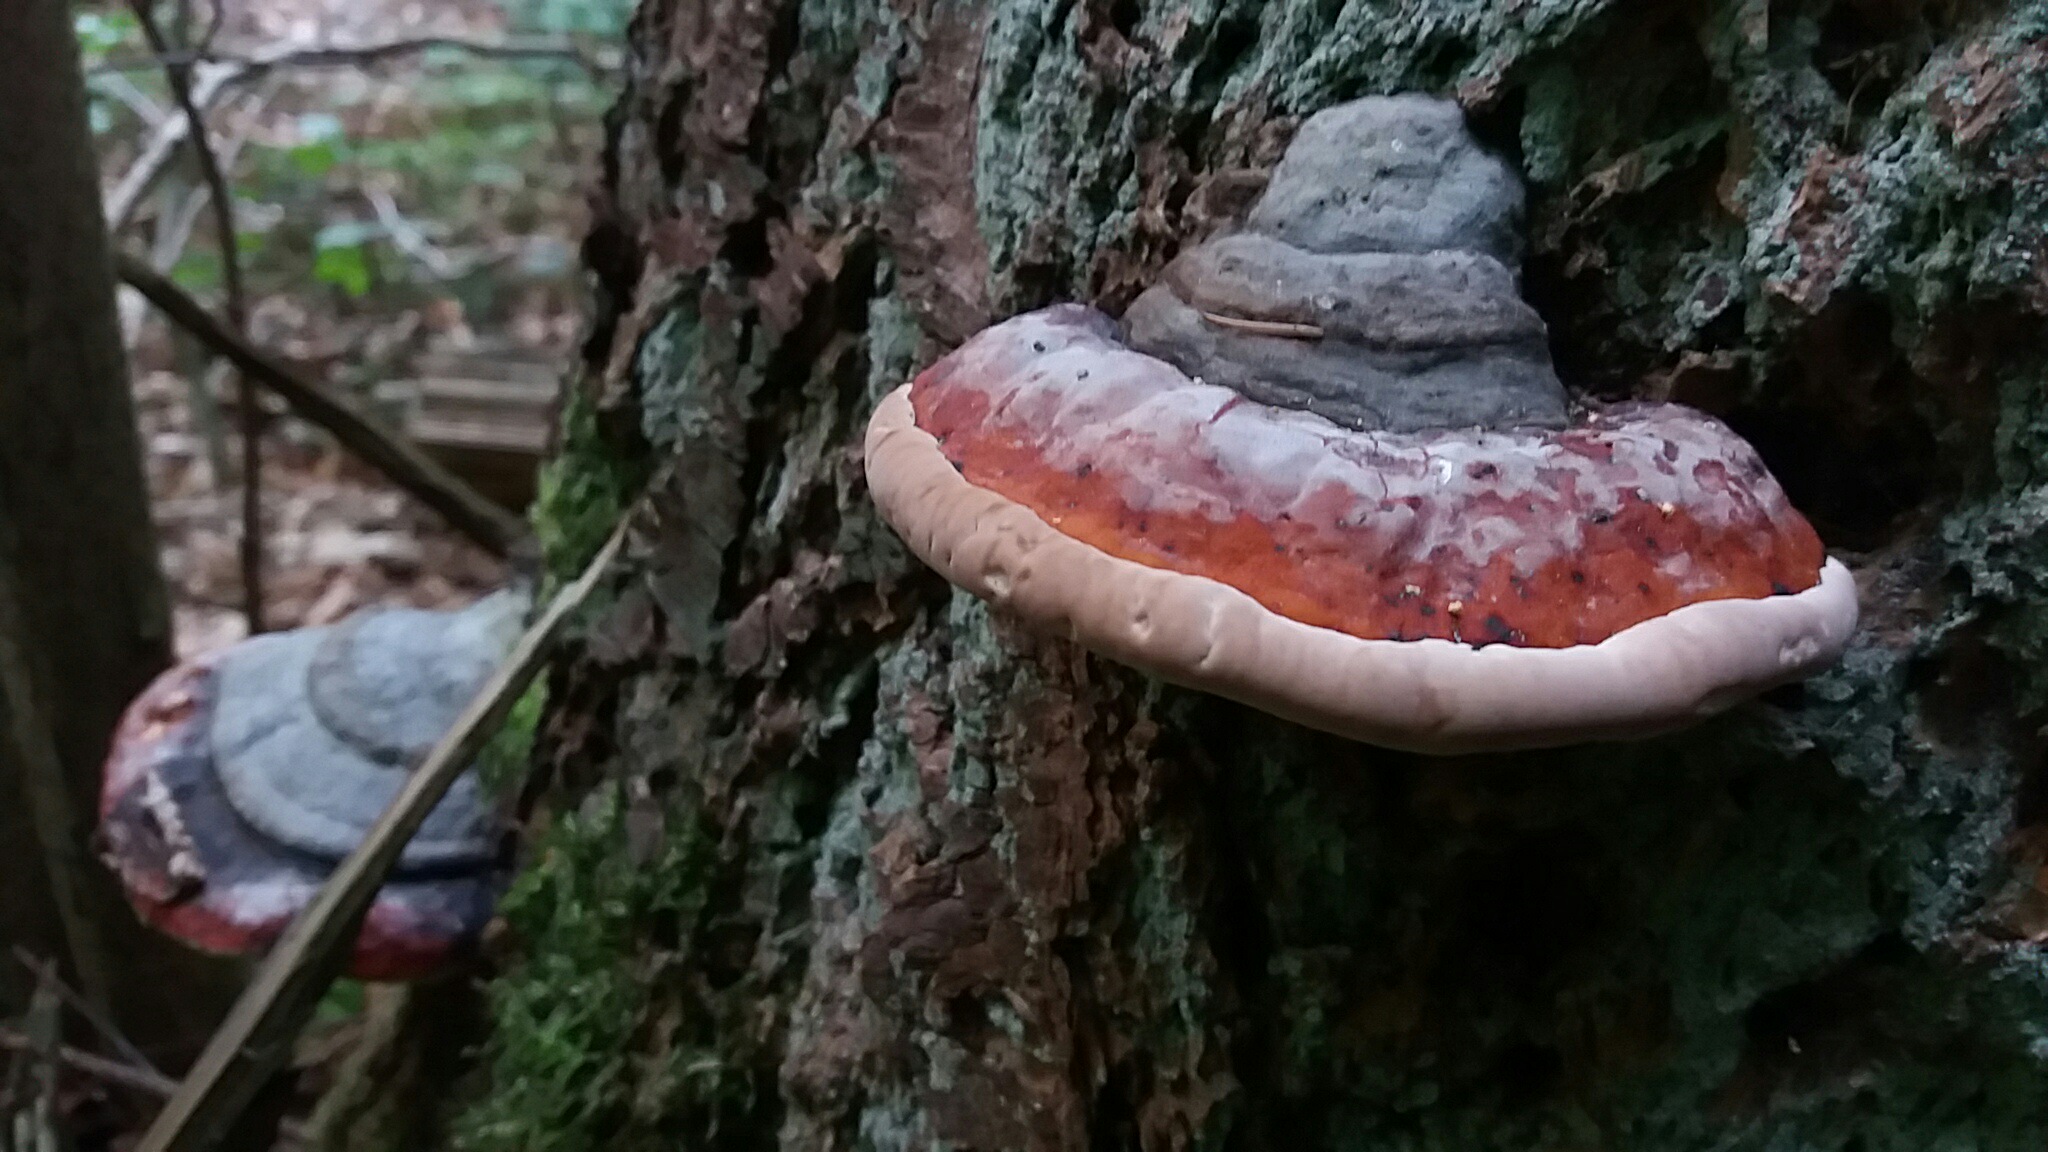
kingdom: Fungi
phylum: Basidiomycota
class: Agaricomycetes
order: Polyporales
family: Fomitopsidaceae
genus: Fomitopsis
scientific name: Fomitopsis pinicola
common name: randbæltet hovporesvamp
